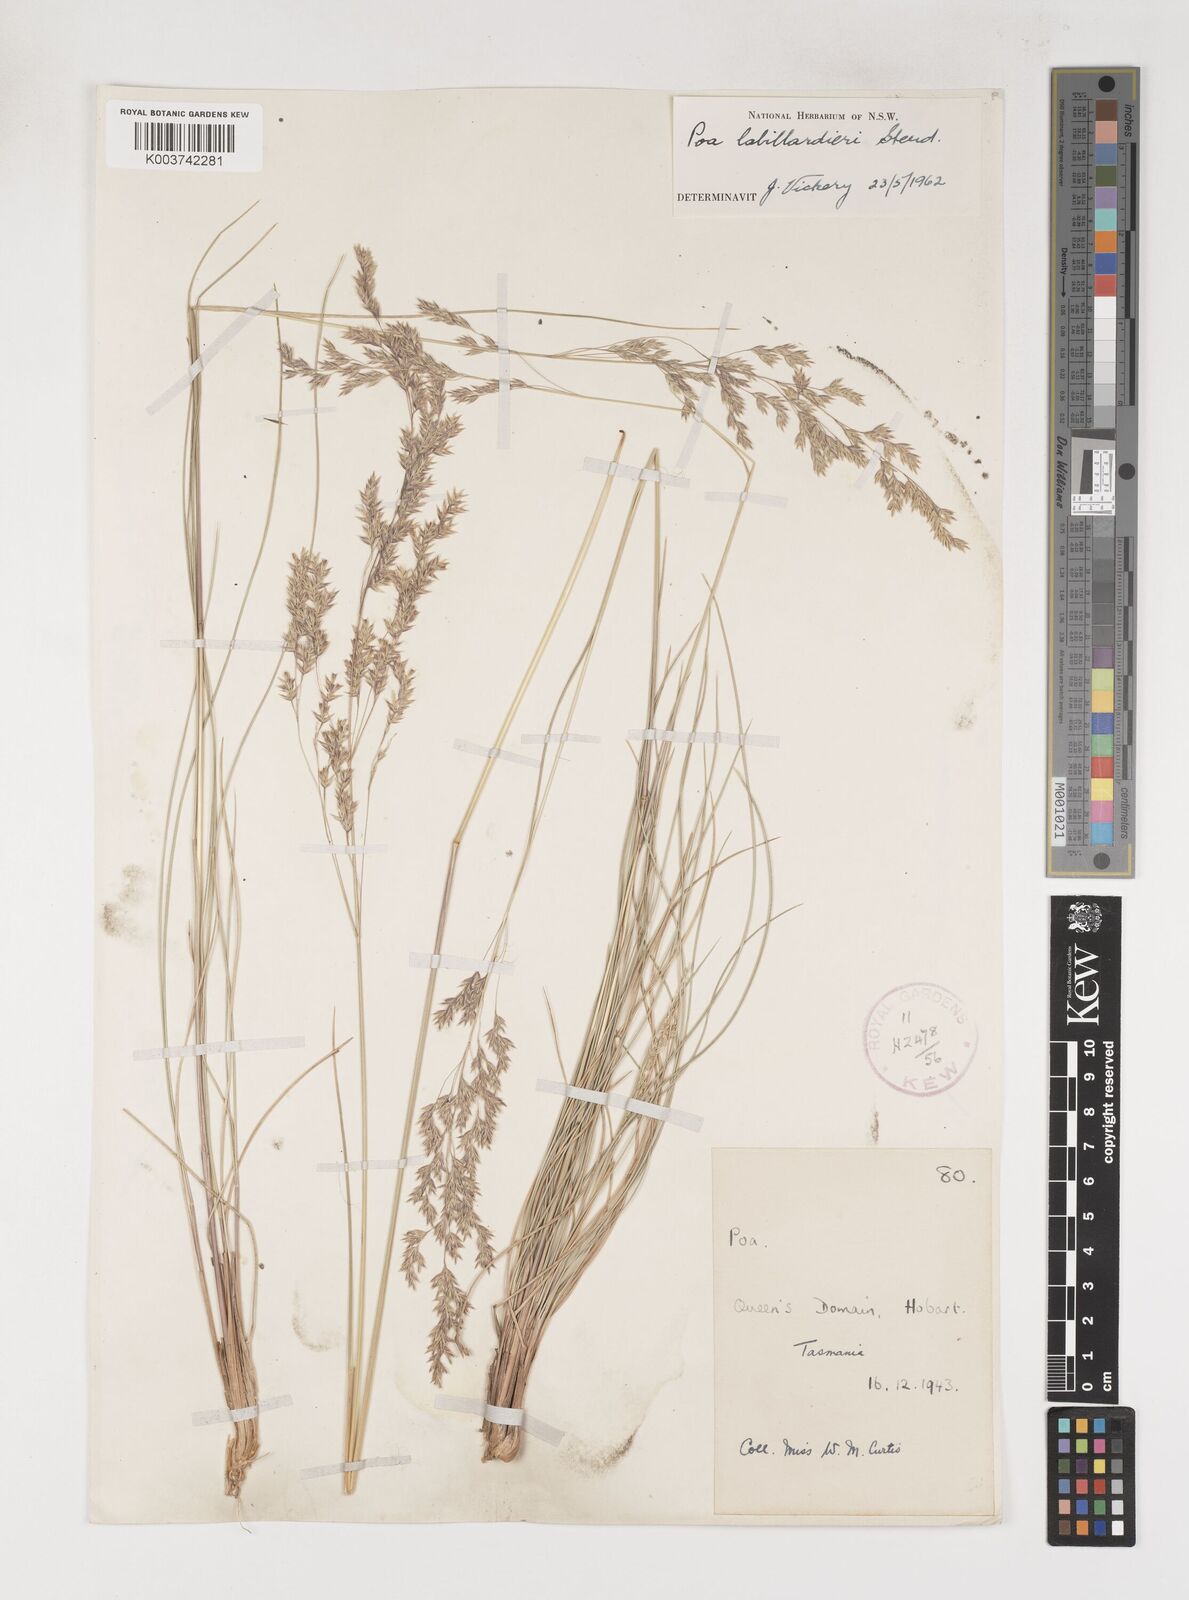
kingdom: Plantae
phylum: Tracheophyta
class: Liliopsida
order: Poales
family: Poaceae
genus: Poa
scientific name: Poa labillardierei
